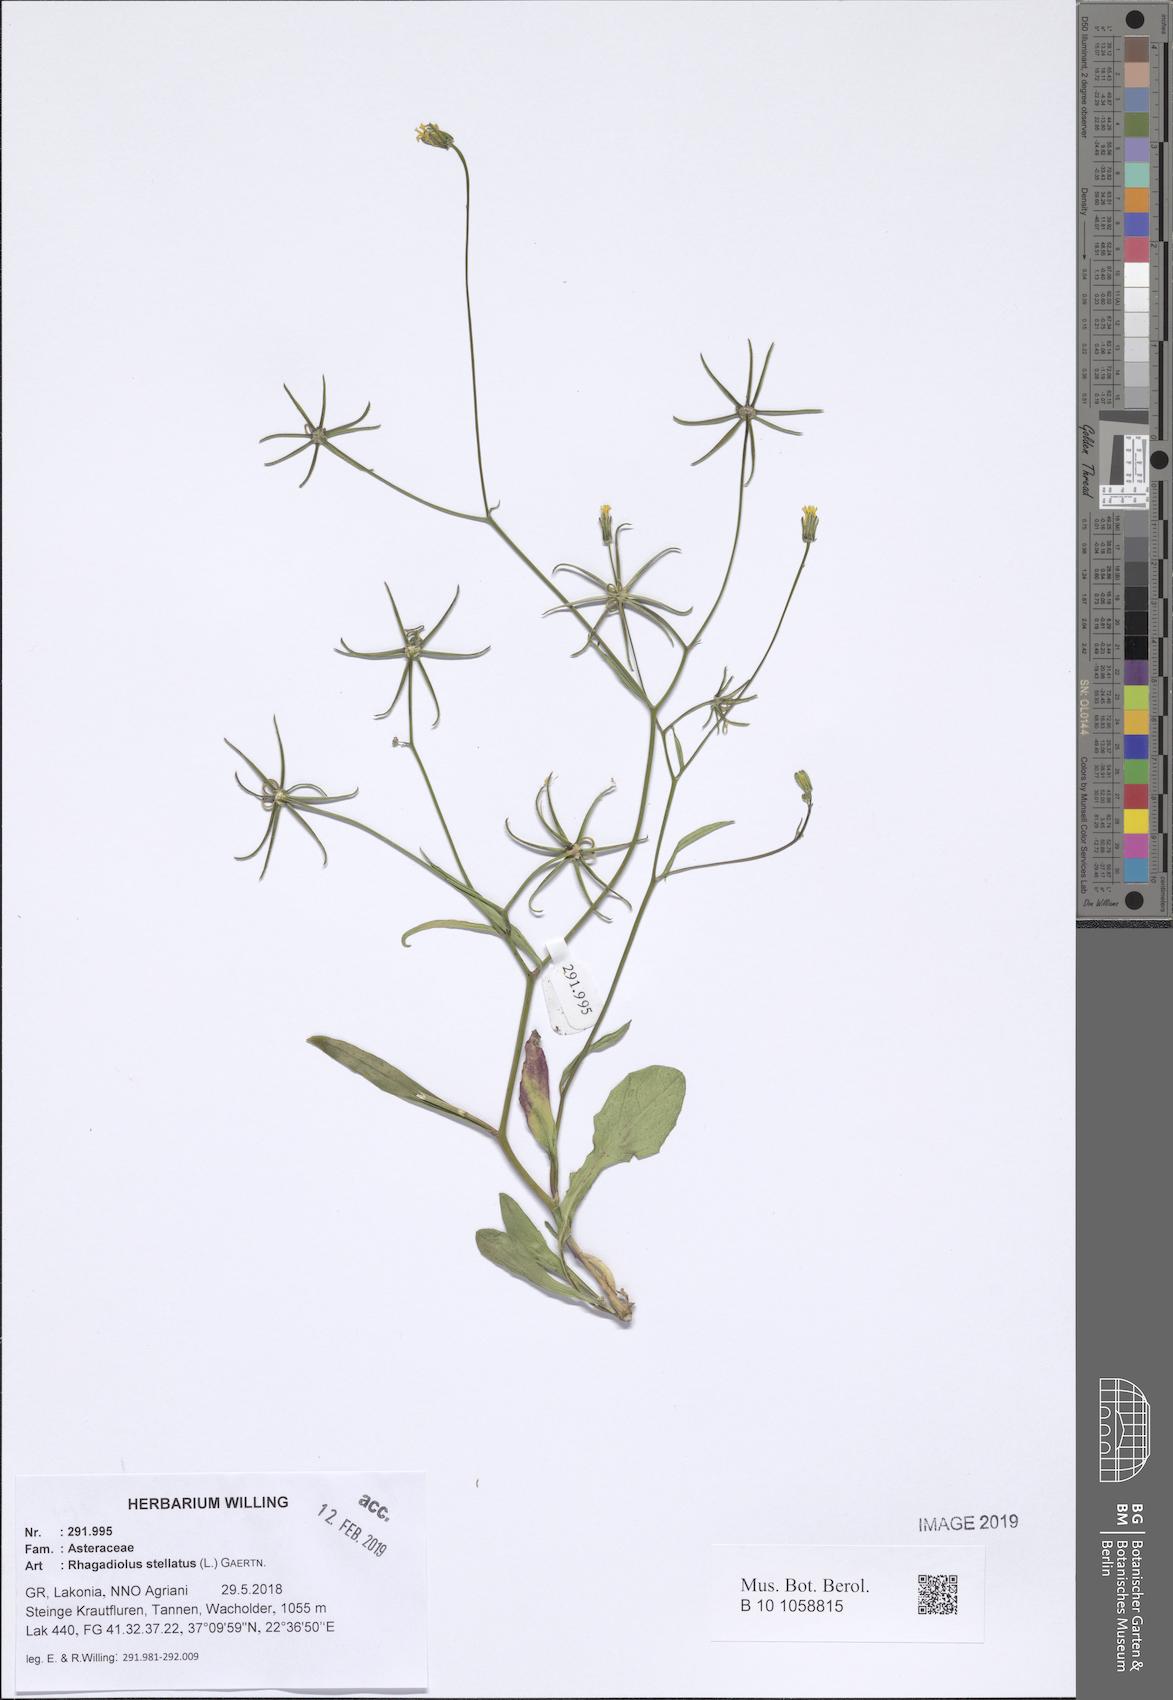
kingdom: Plantae
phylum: Tracheophyta
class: Magnoliopsida
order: Asterales
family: Asteraceae
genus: Rhagadiolus
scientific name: Rhagadiolus stellatus
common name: Star hawkbit
